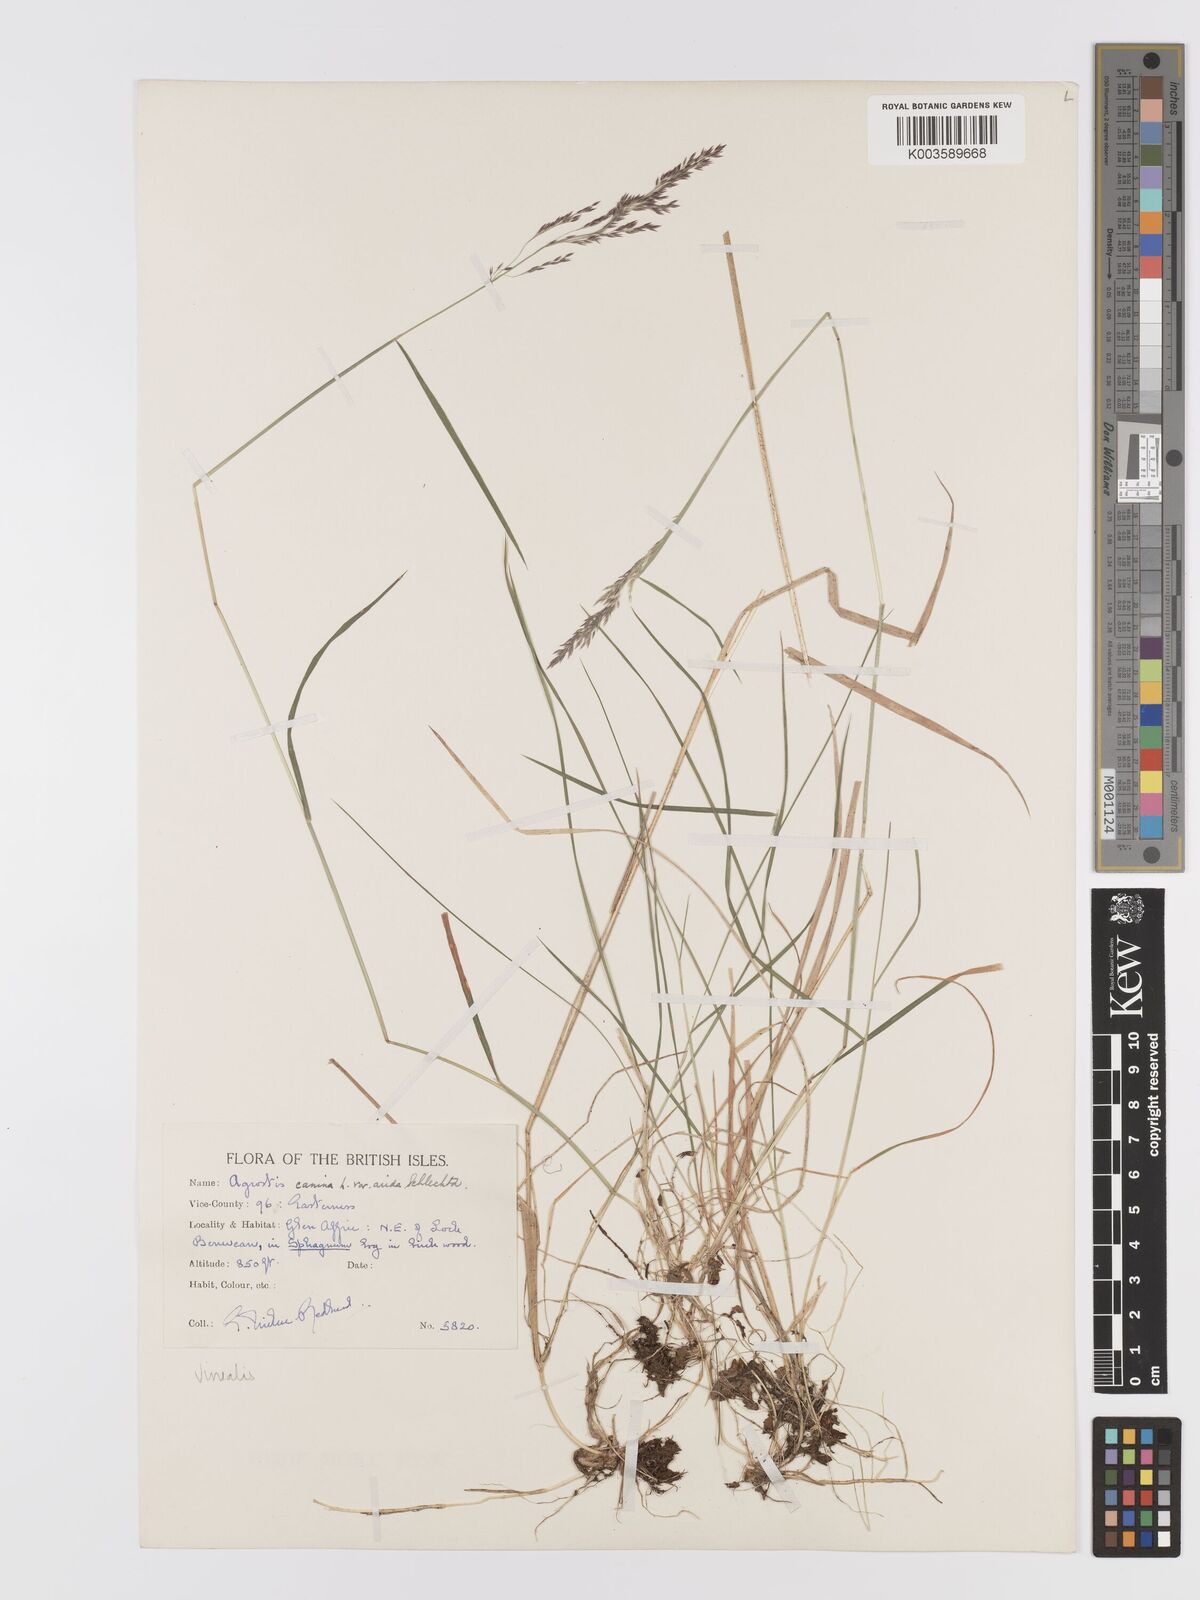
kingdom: Plantae
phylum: Tracheophyta
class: Liliopsida
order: Poales
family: Poaceae
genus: Agrostis
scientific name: Agrostis
